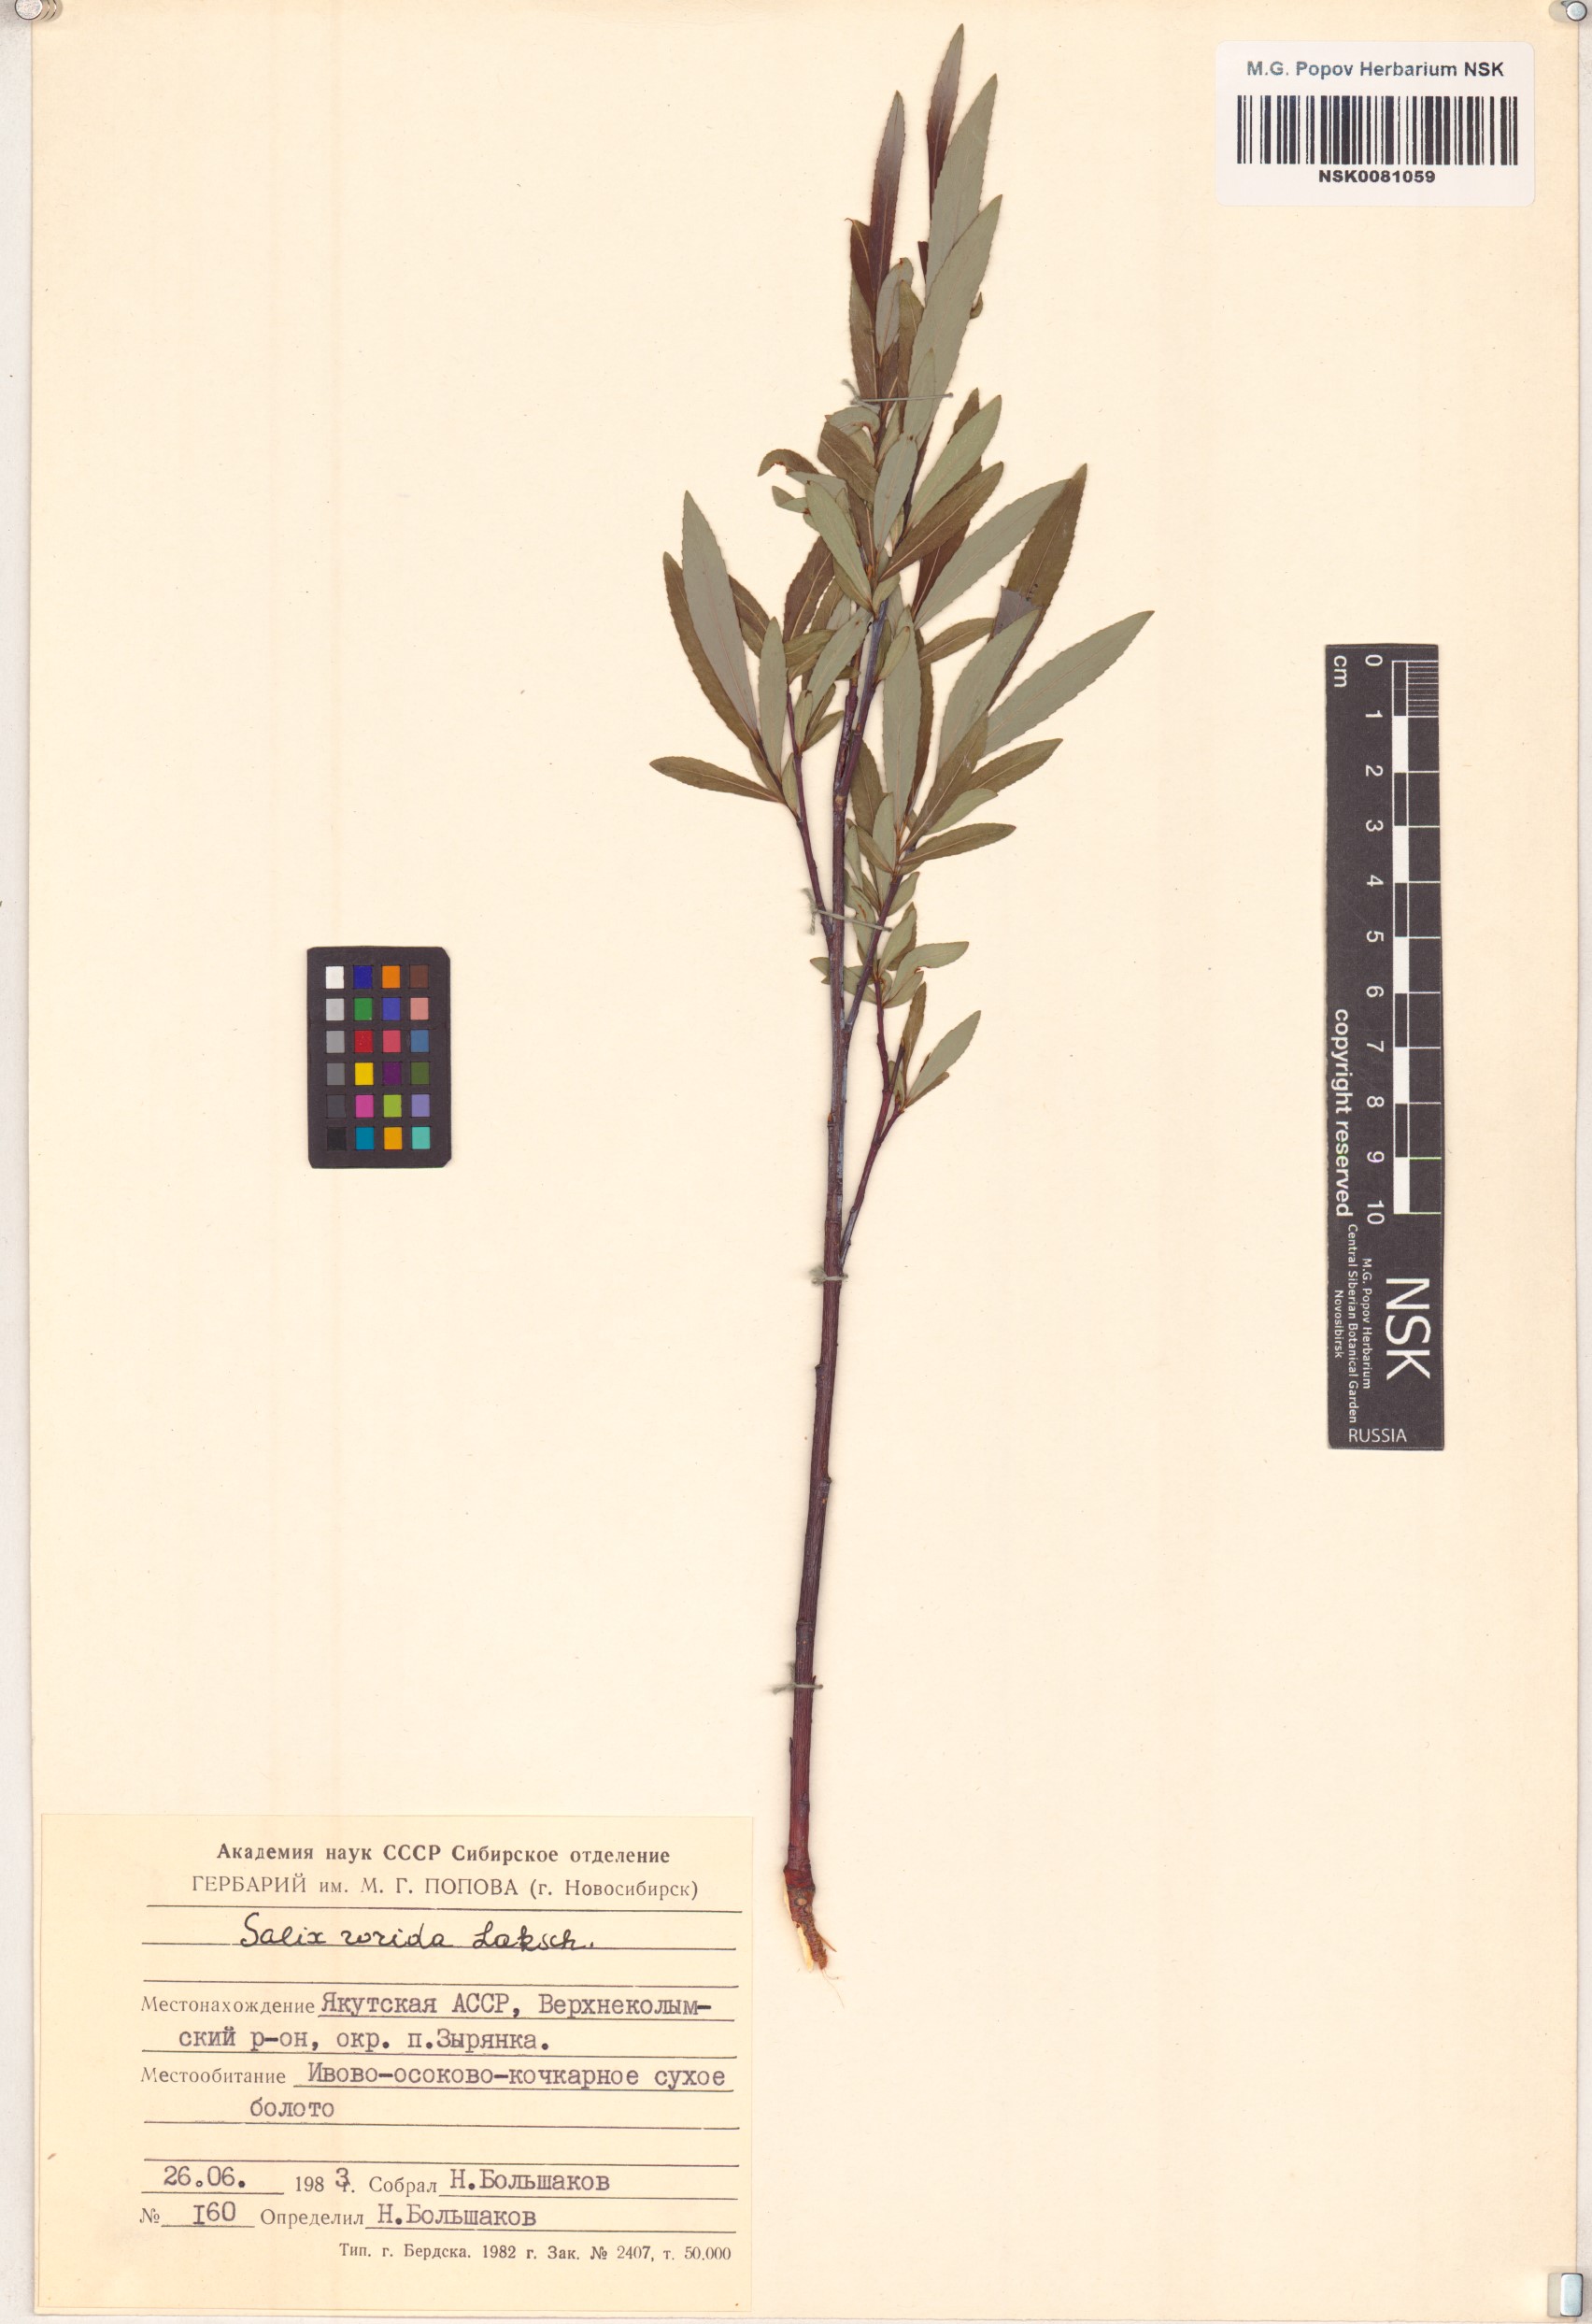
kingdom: Plantae
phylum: Tracheophyta
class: Magnoliopsida
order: Malpighiales
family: Salicaceae
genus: Salix
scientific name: Salix rorida
